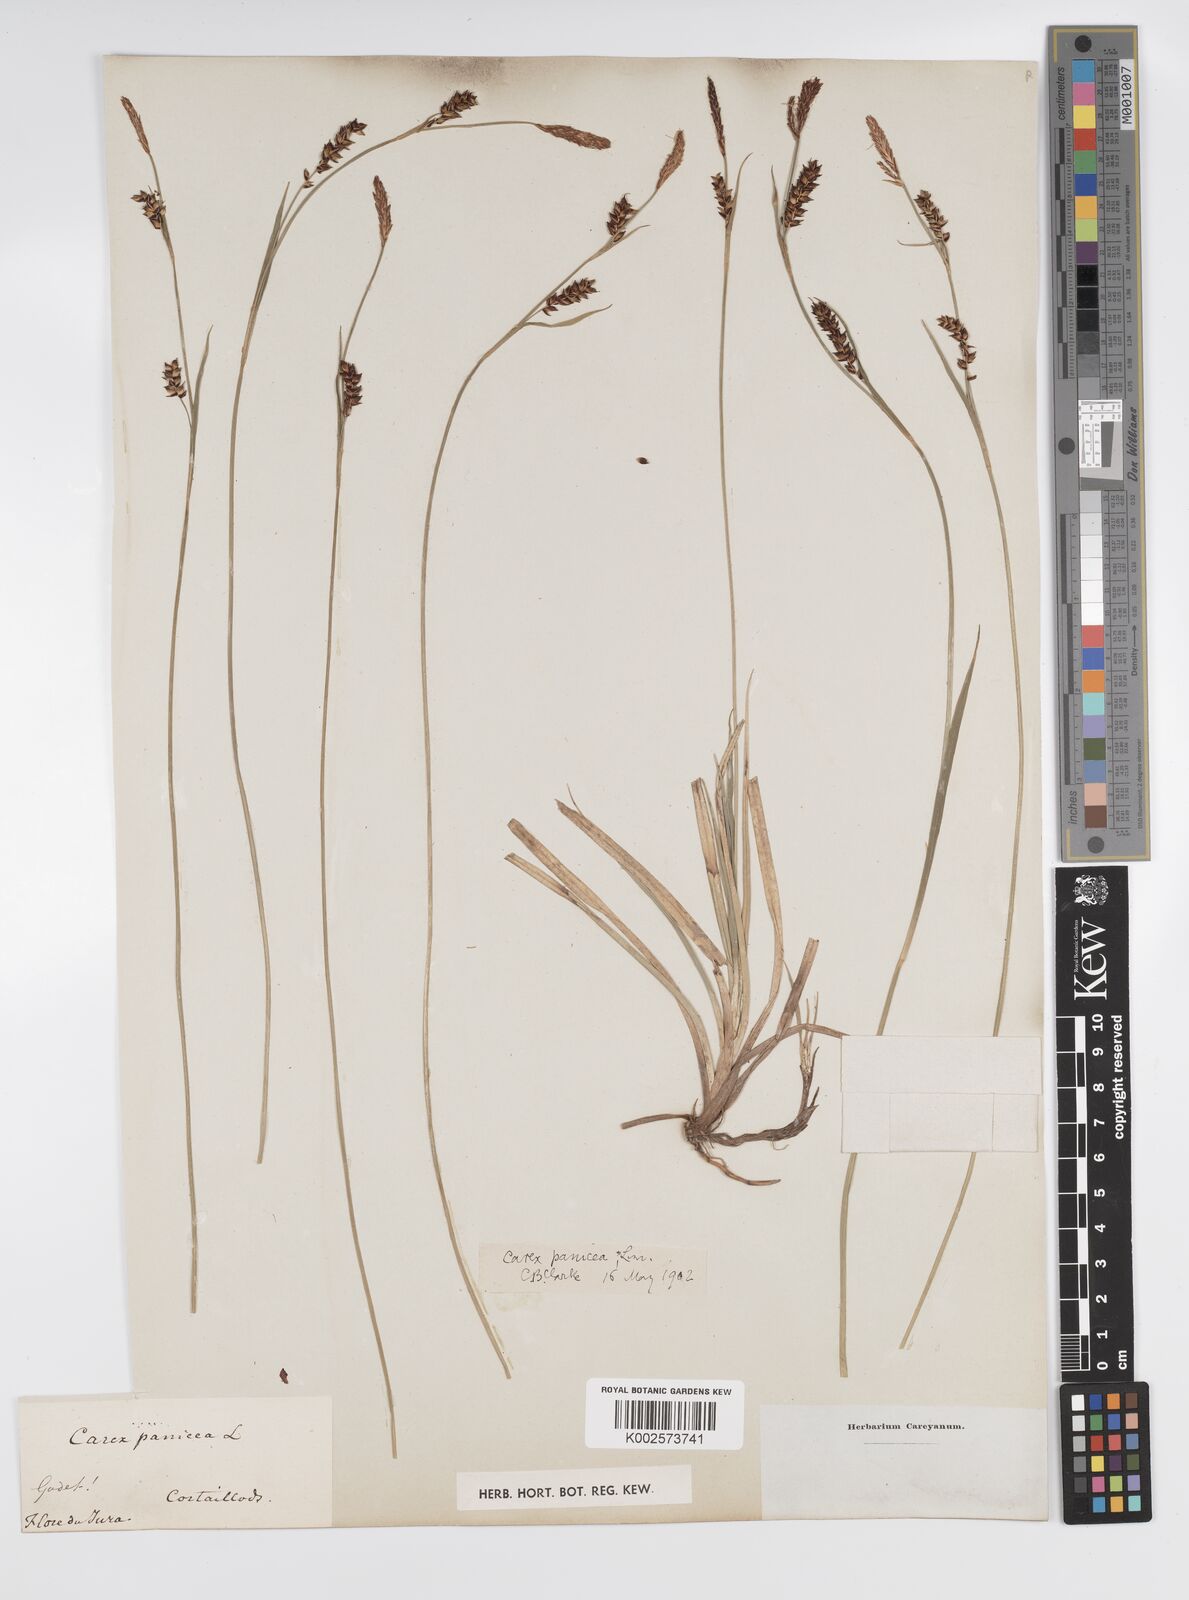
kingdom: Plantae
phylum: Tracheophyta
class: Liliopsida
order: Poales
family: Cyperaceae
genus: Carex
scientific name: Carex panicea
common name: Carnation sedge
